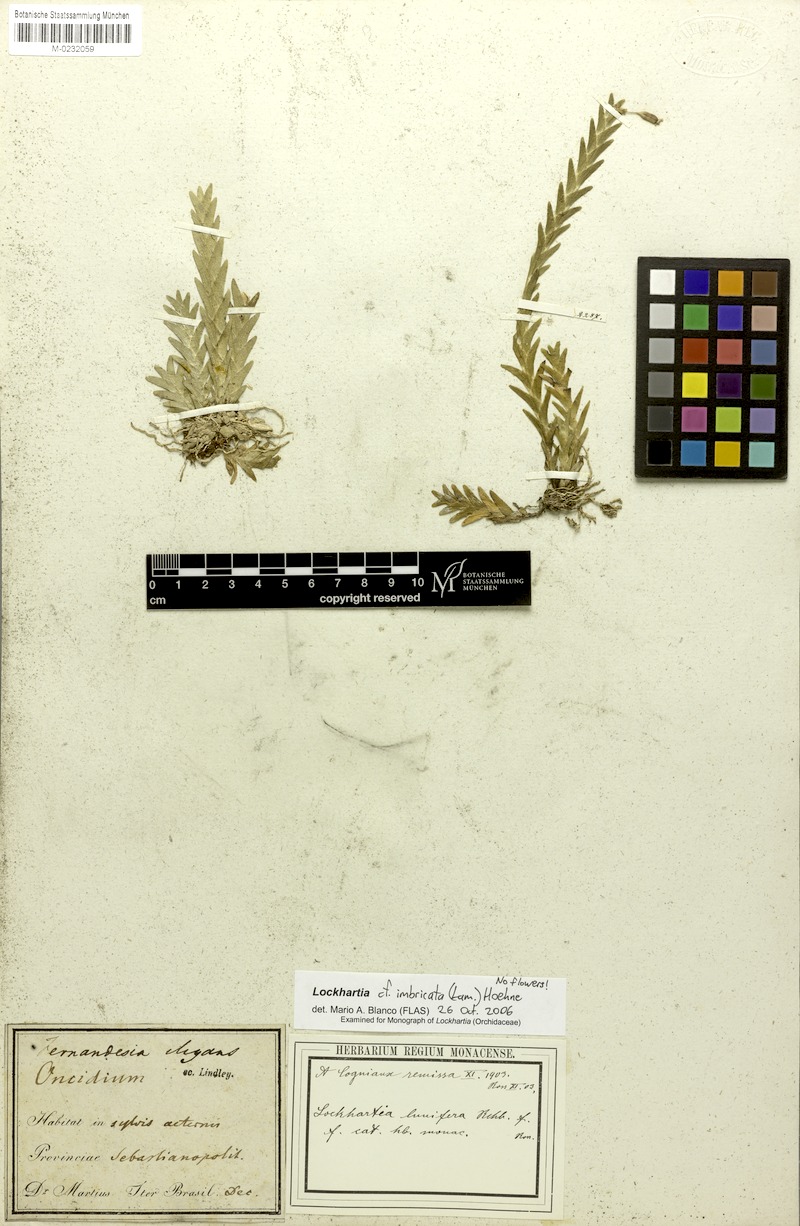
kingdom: Plantae
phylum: Tracheophyta
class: Liliopsida
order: Asparagales
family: Orchidaceae
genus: Lockhartia
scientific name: Lockhartia imbricata
